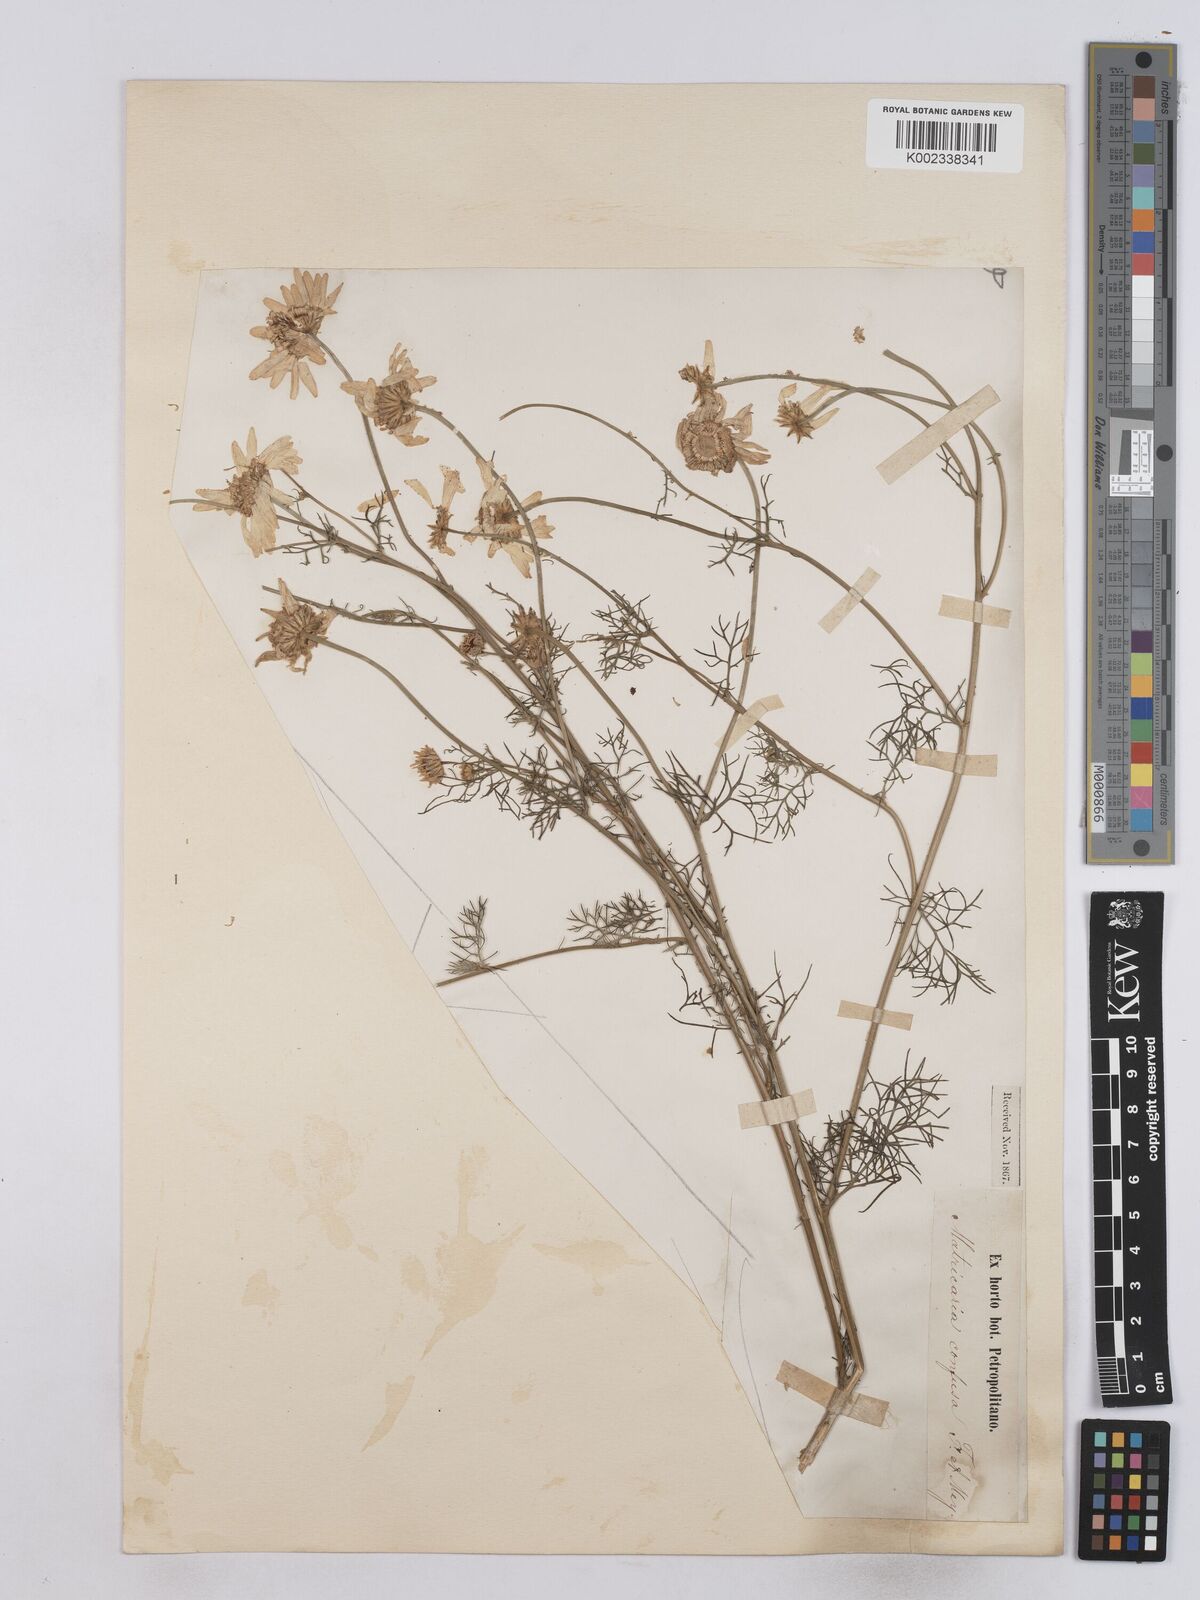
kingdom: Plantae
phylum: Tracheophyta
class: Magnoliopsida
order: Asterales
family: Asteraceae
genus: Matricaria
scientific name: Matricaria confusa
